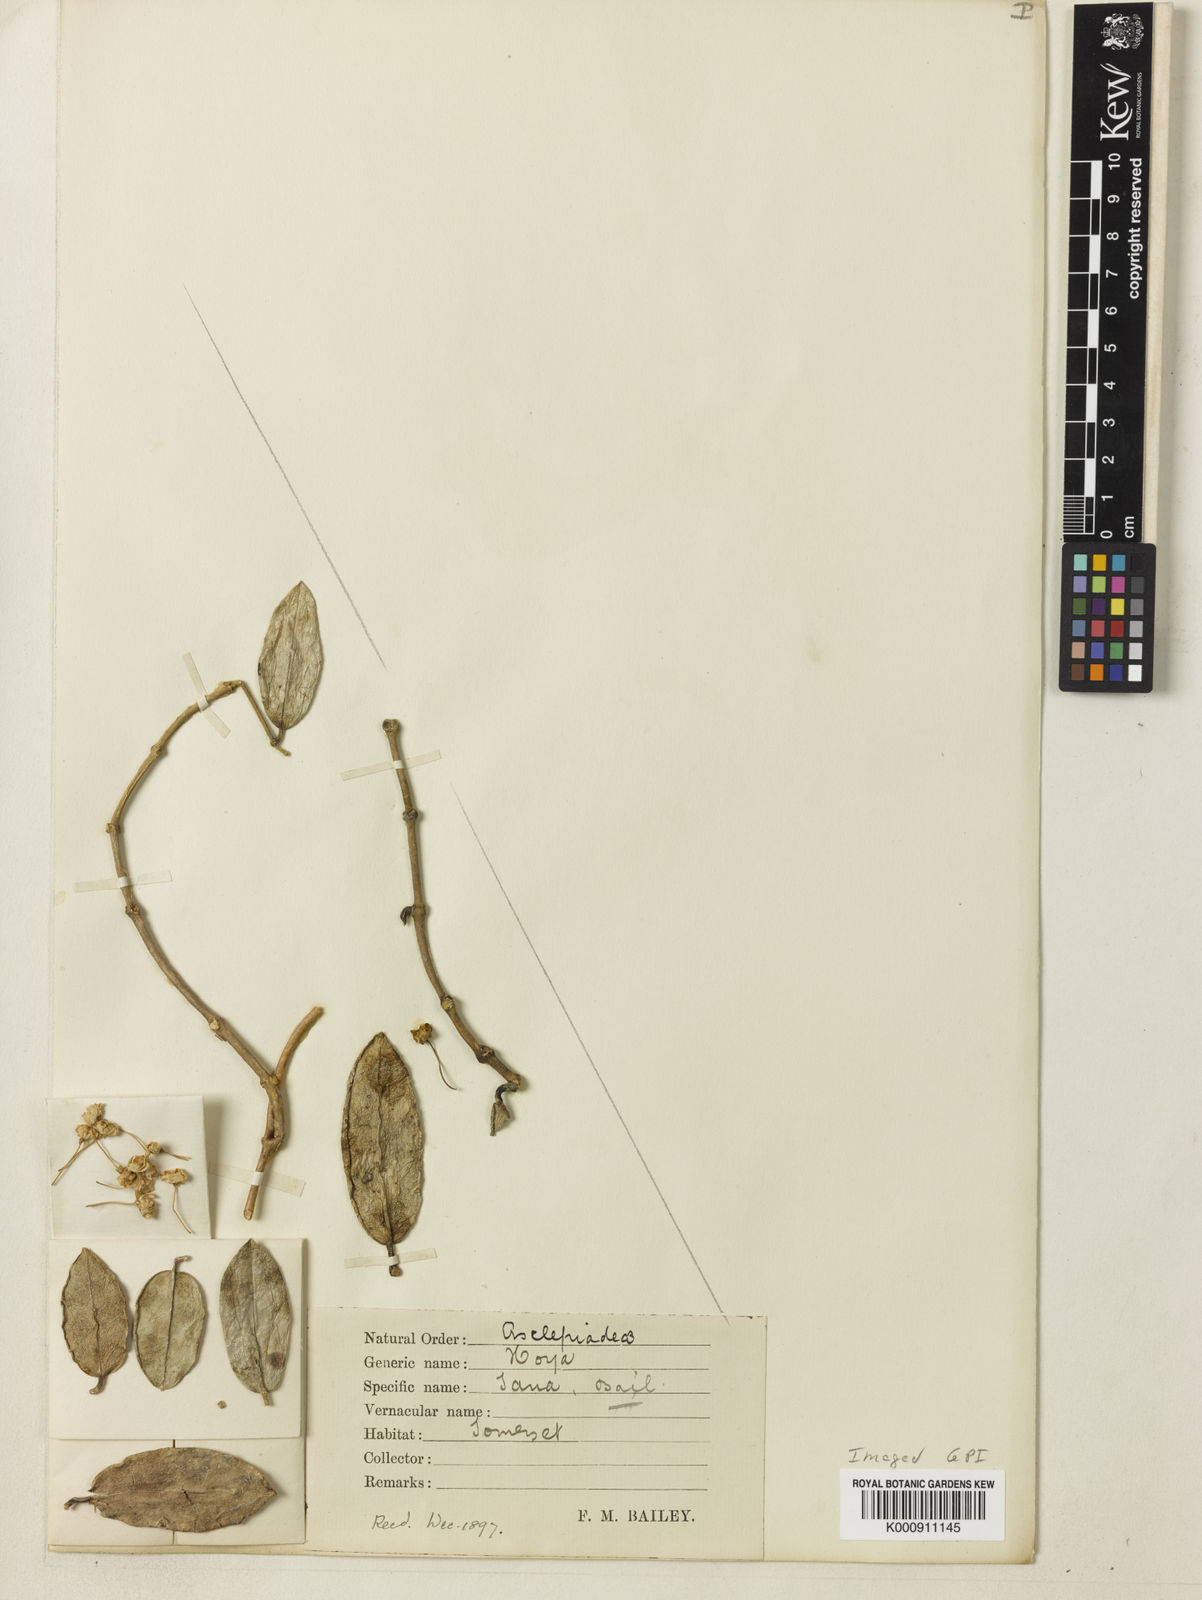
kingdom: Plantae
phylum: Tracheophyta
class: Magnoliopsida
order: Gentianales
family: Apocynaceae
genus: Hoya
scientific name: Hoya australis
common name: Wax flower
